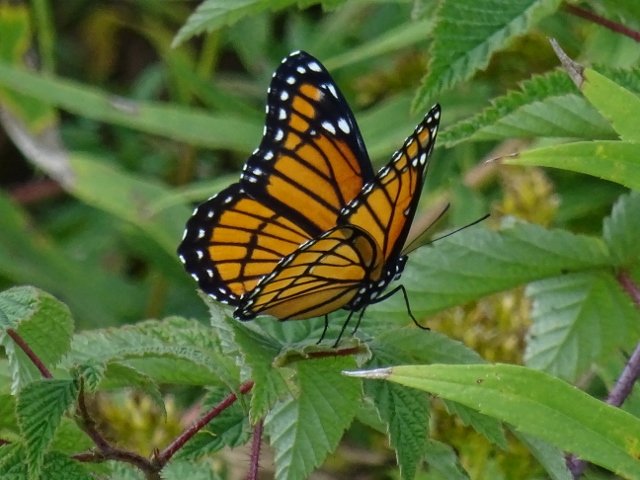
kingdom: Animalia
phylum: Arthropoda
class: Insecta
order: Lepidoptera
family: Nymphalidae
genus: Limenitis
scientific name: Limenitis archippus
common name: Viceroy
